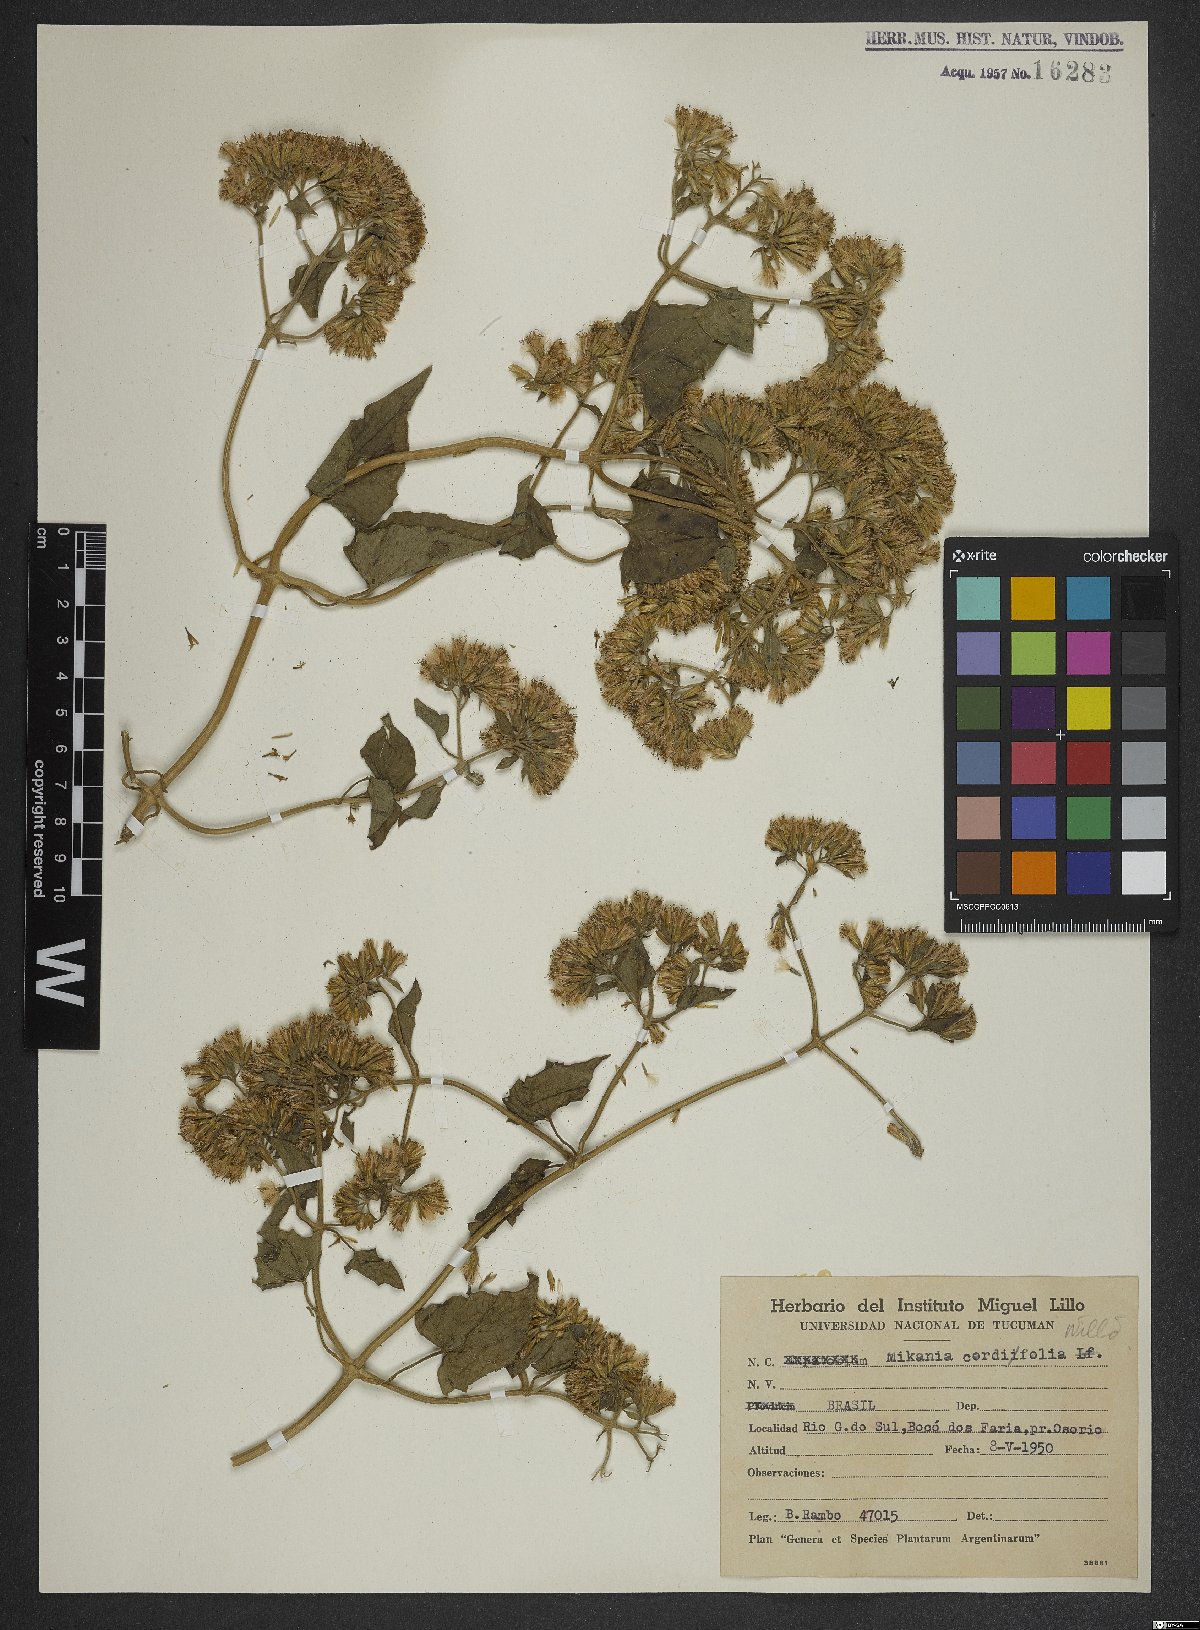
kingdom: Plantae
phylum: Tracheophyta
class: Magnoliopsida
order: Asterales
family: Asteraceae
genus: Mikania
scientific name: Mikania cordifolia
